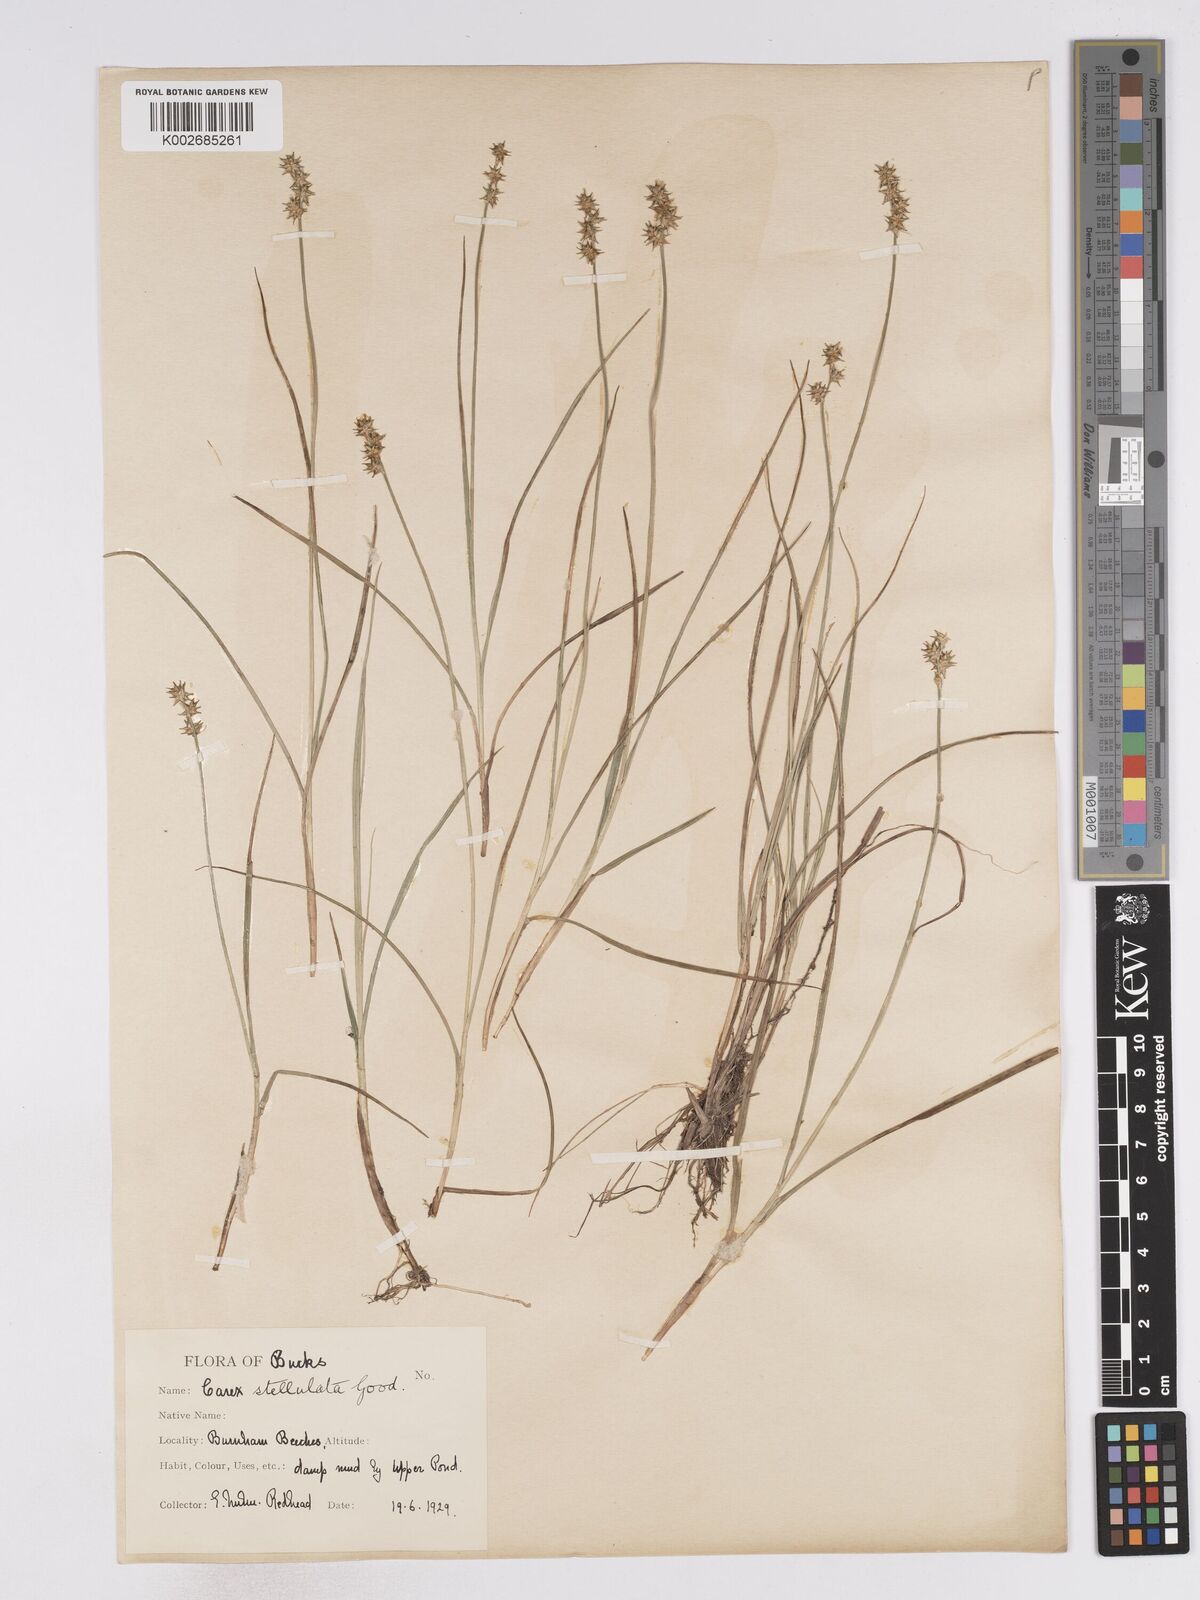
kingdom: Plantae
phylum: Tracheophyta
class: Liliopsida
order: Poales
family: Cyperaceae
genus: Carex
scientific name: Carex echinata
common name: Star sedge
